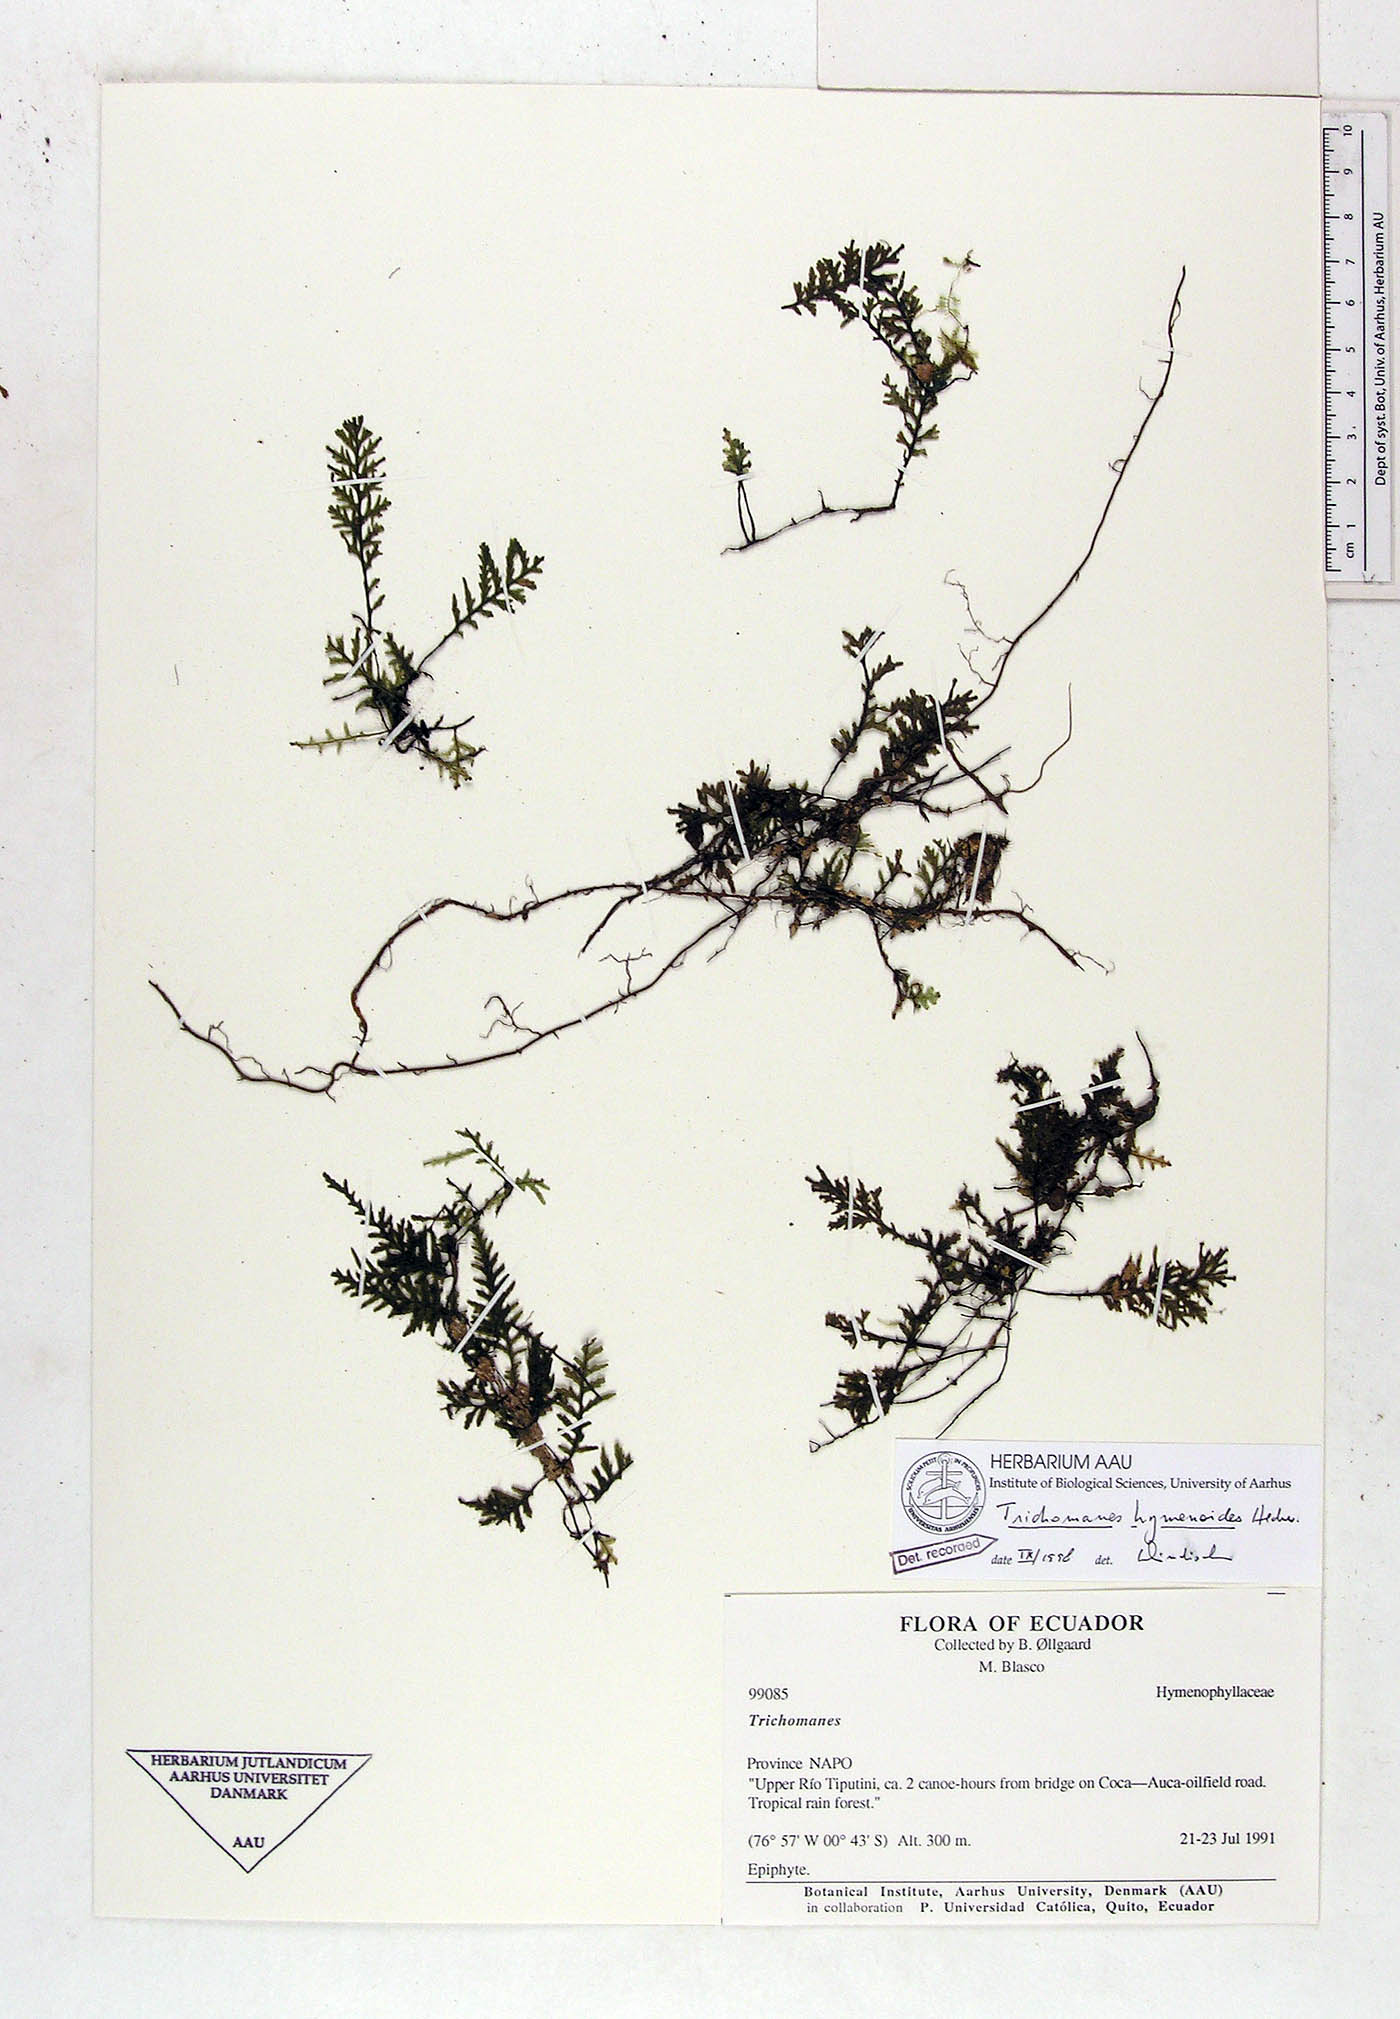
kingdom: Plantae
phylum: Tracheophyta
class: Polypodiopsida
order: Hymenophyllales
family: Hymenophyllaceae
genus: Didymoglossum
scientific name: Didymoglossum hymenoides
